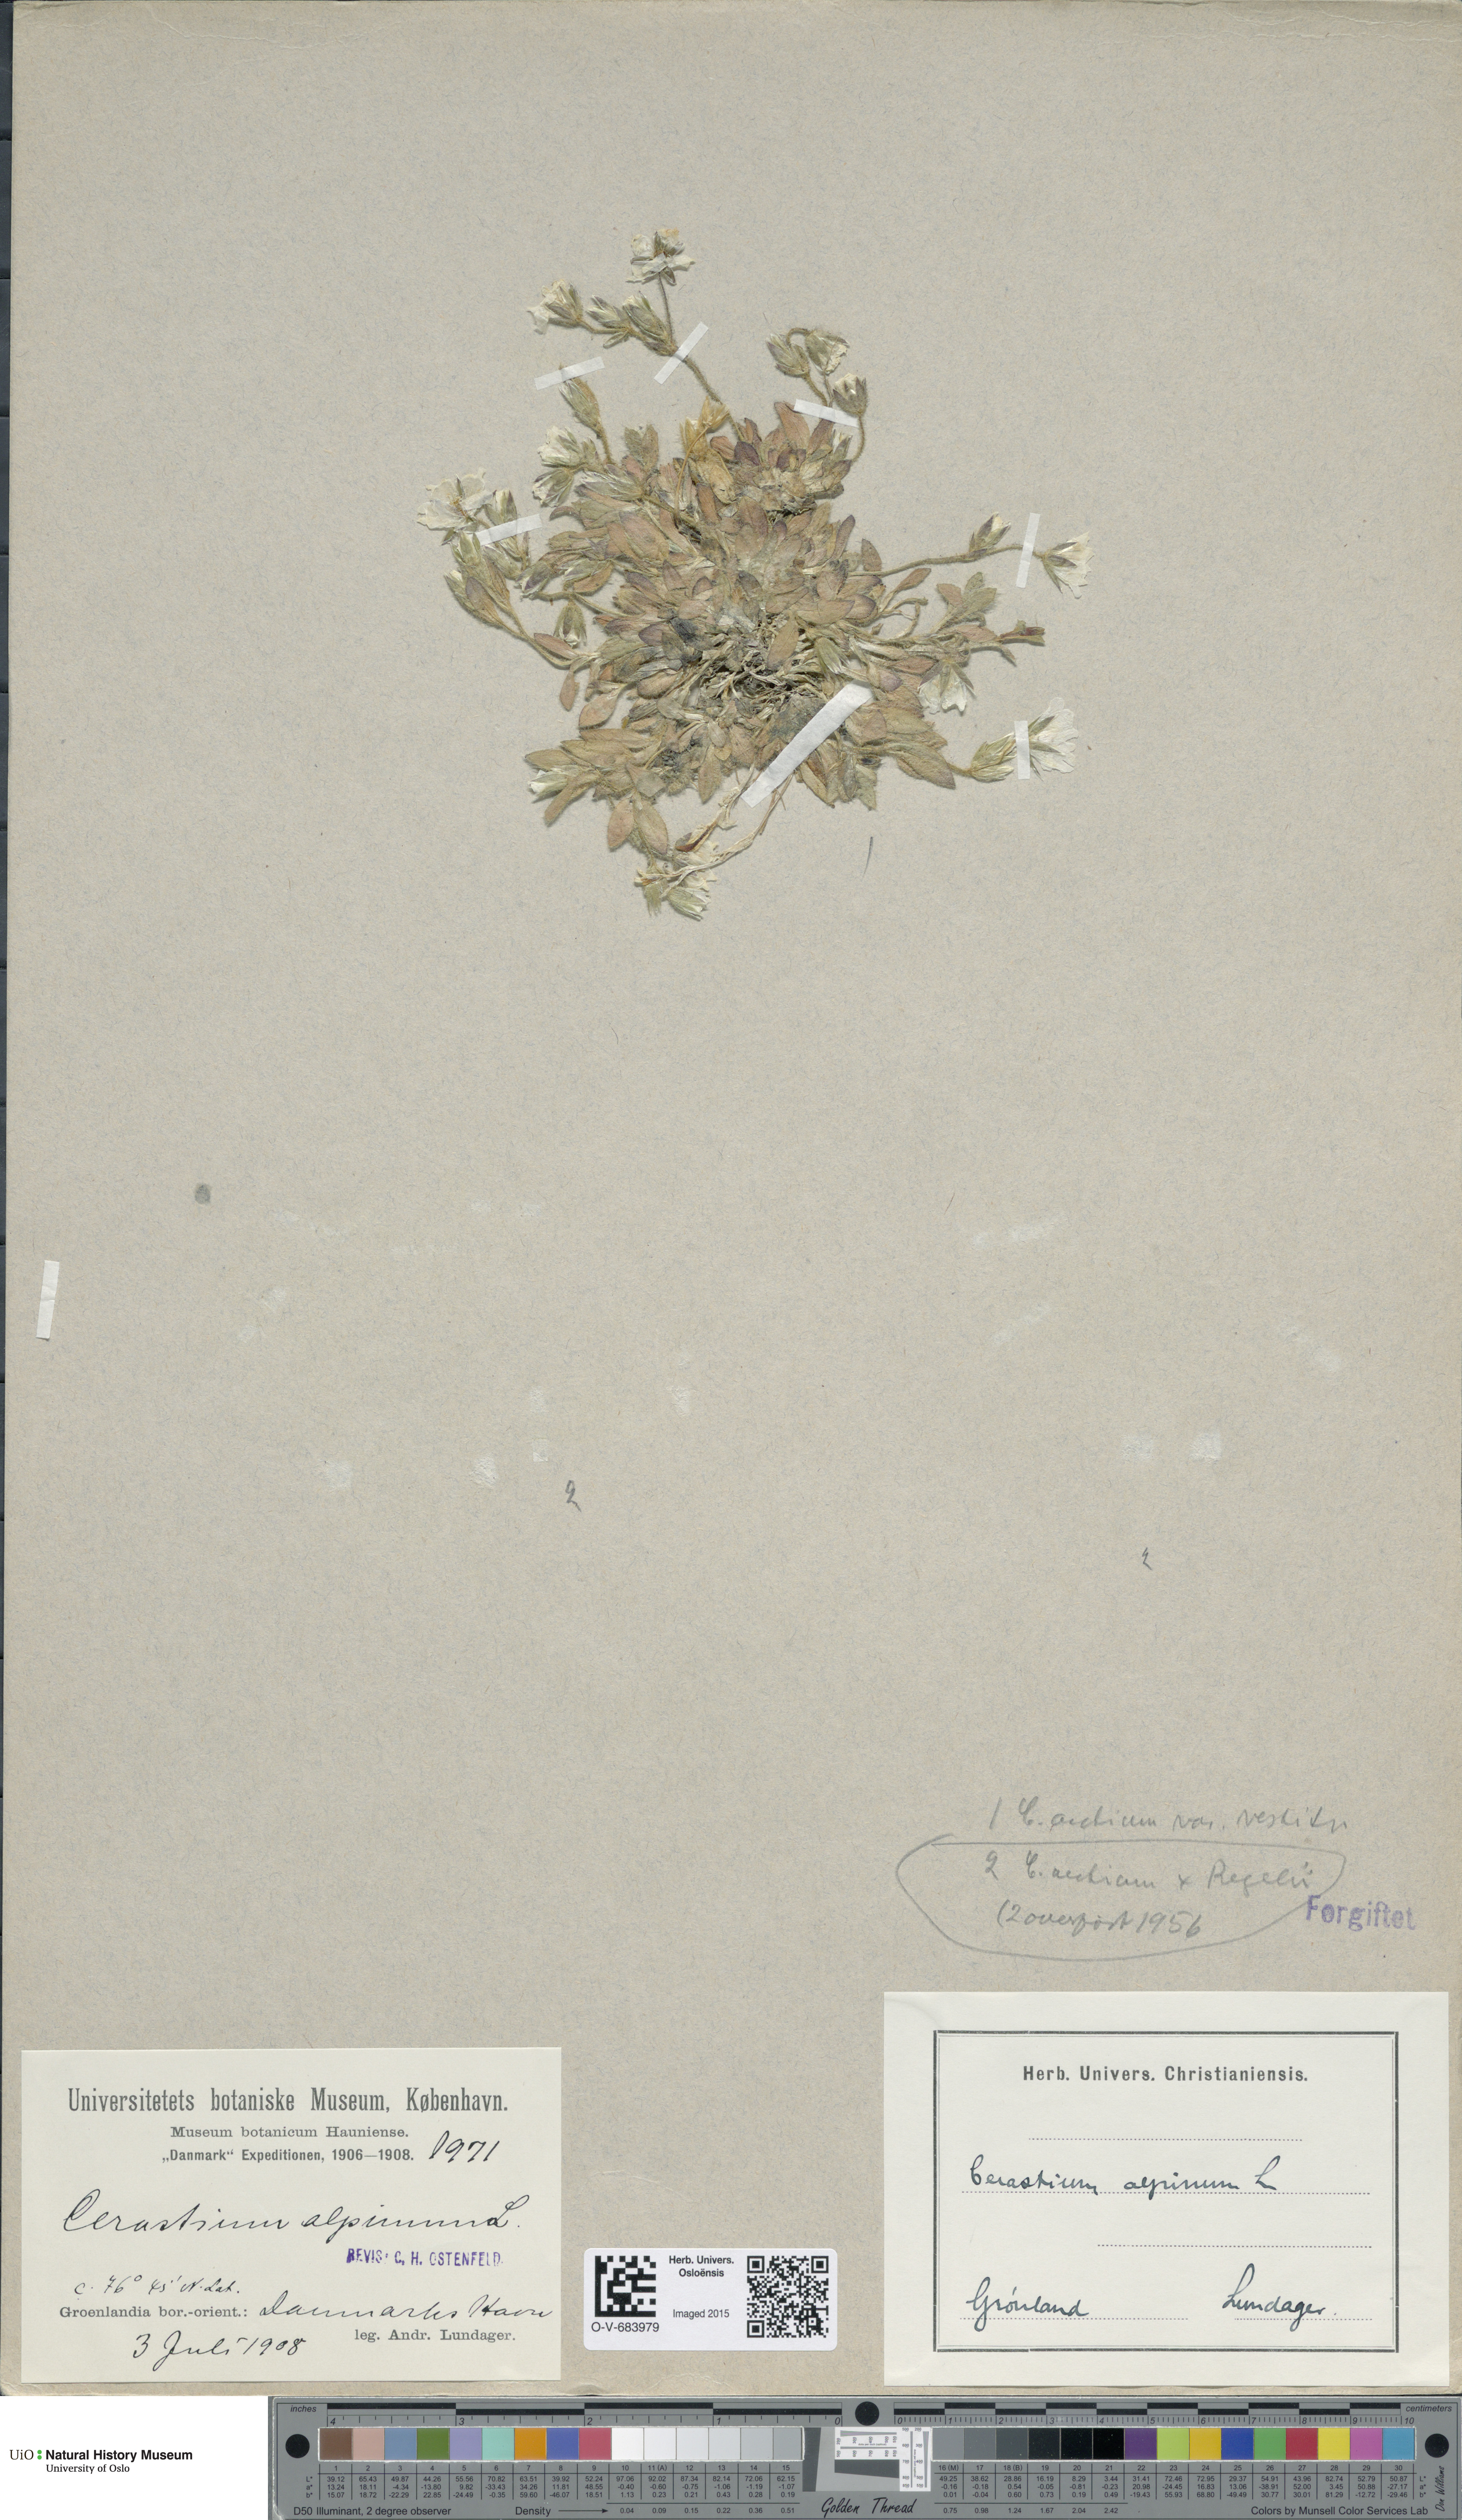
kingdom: Plantae
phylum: Tracheophyta
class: Magnoliopsida
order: Caryophyllales
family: Caryophyllaceae
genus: Cerastium
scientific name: Cerastium arcticum
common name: Arctic mouse-ear
